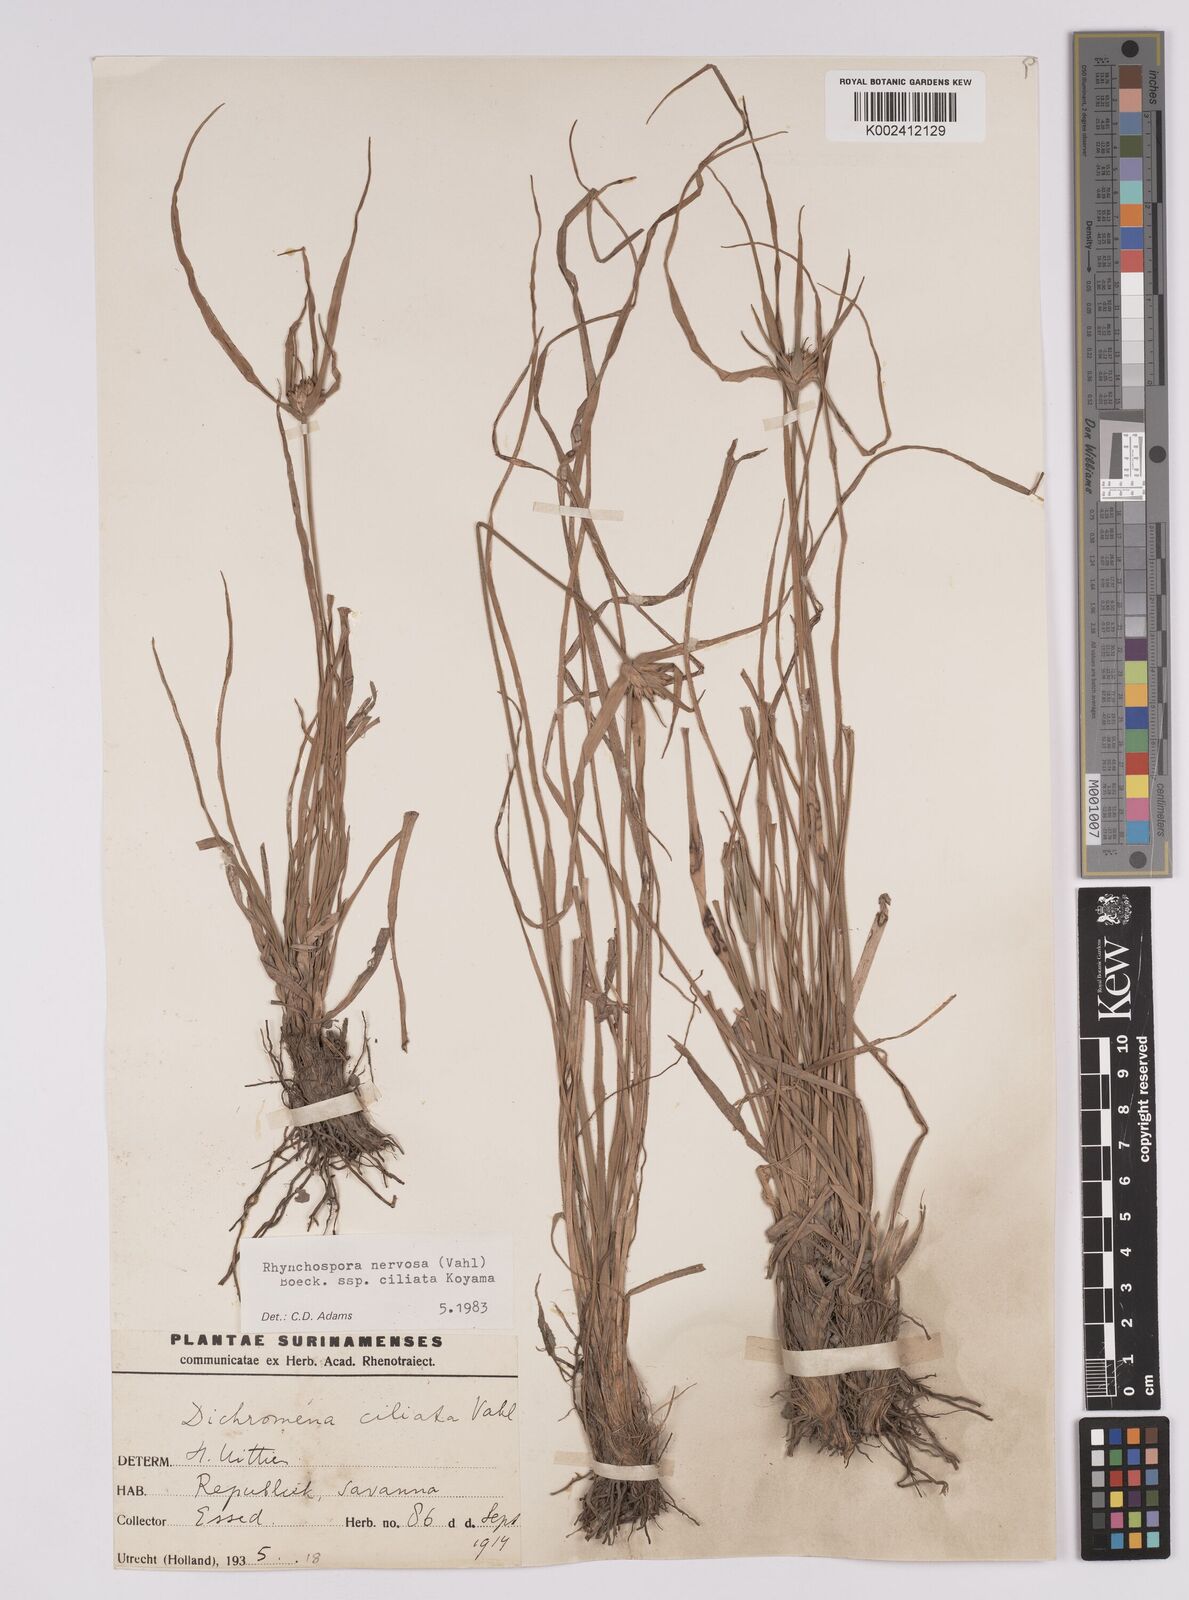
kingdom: Plantae
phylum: Tracheophyta
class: Liliopsida
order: Poales
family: Cyperaceae
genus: Rhynchospora
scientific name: Rhynchospora pura
